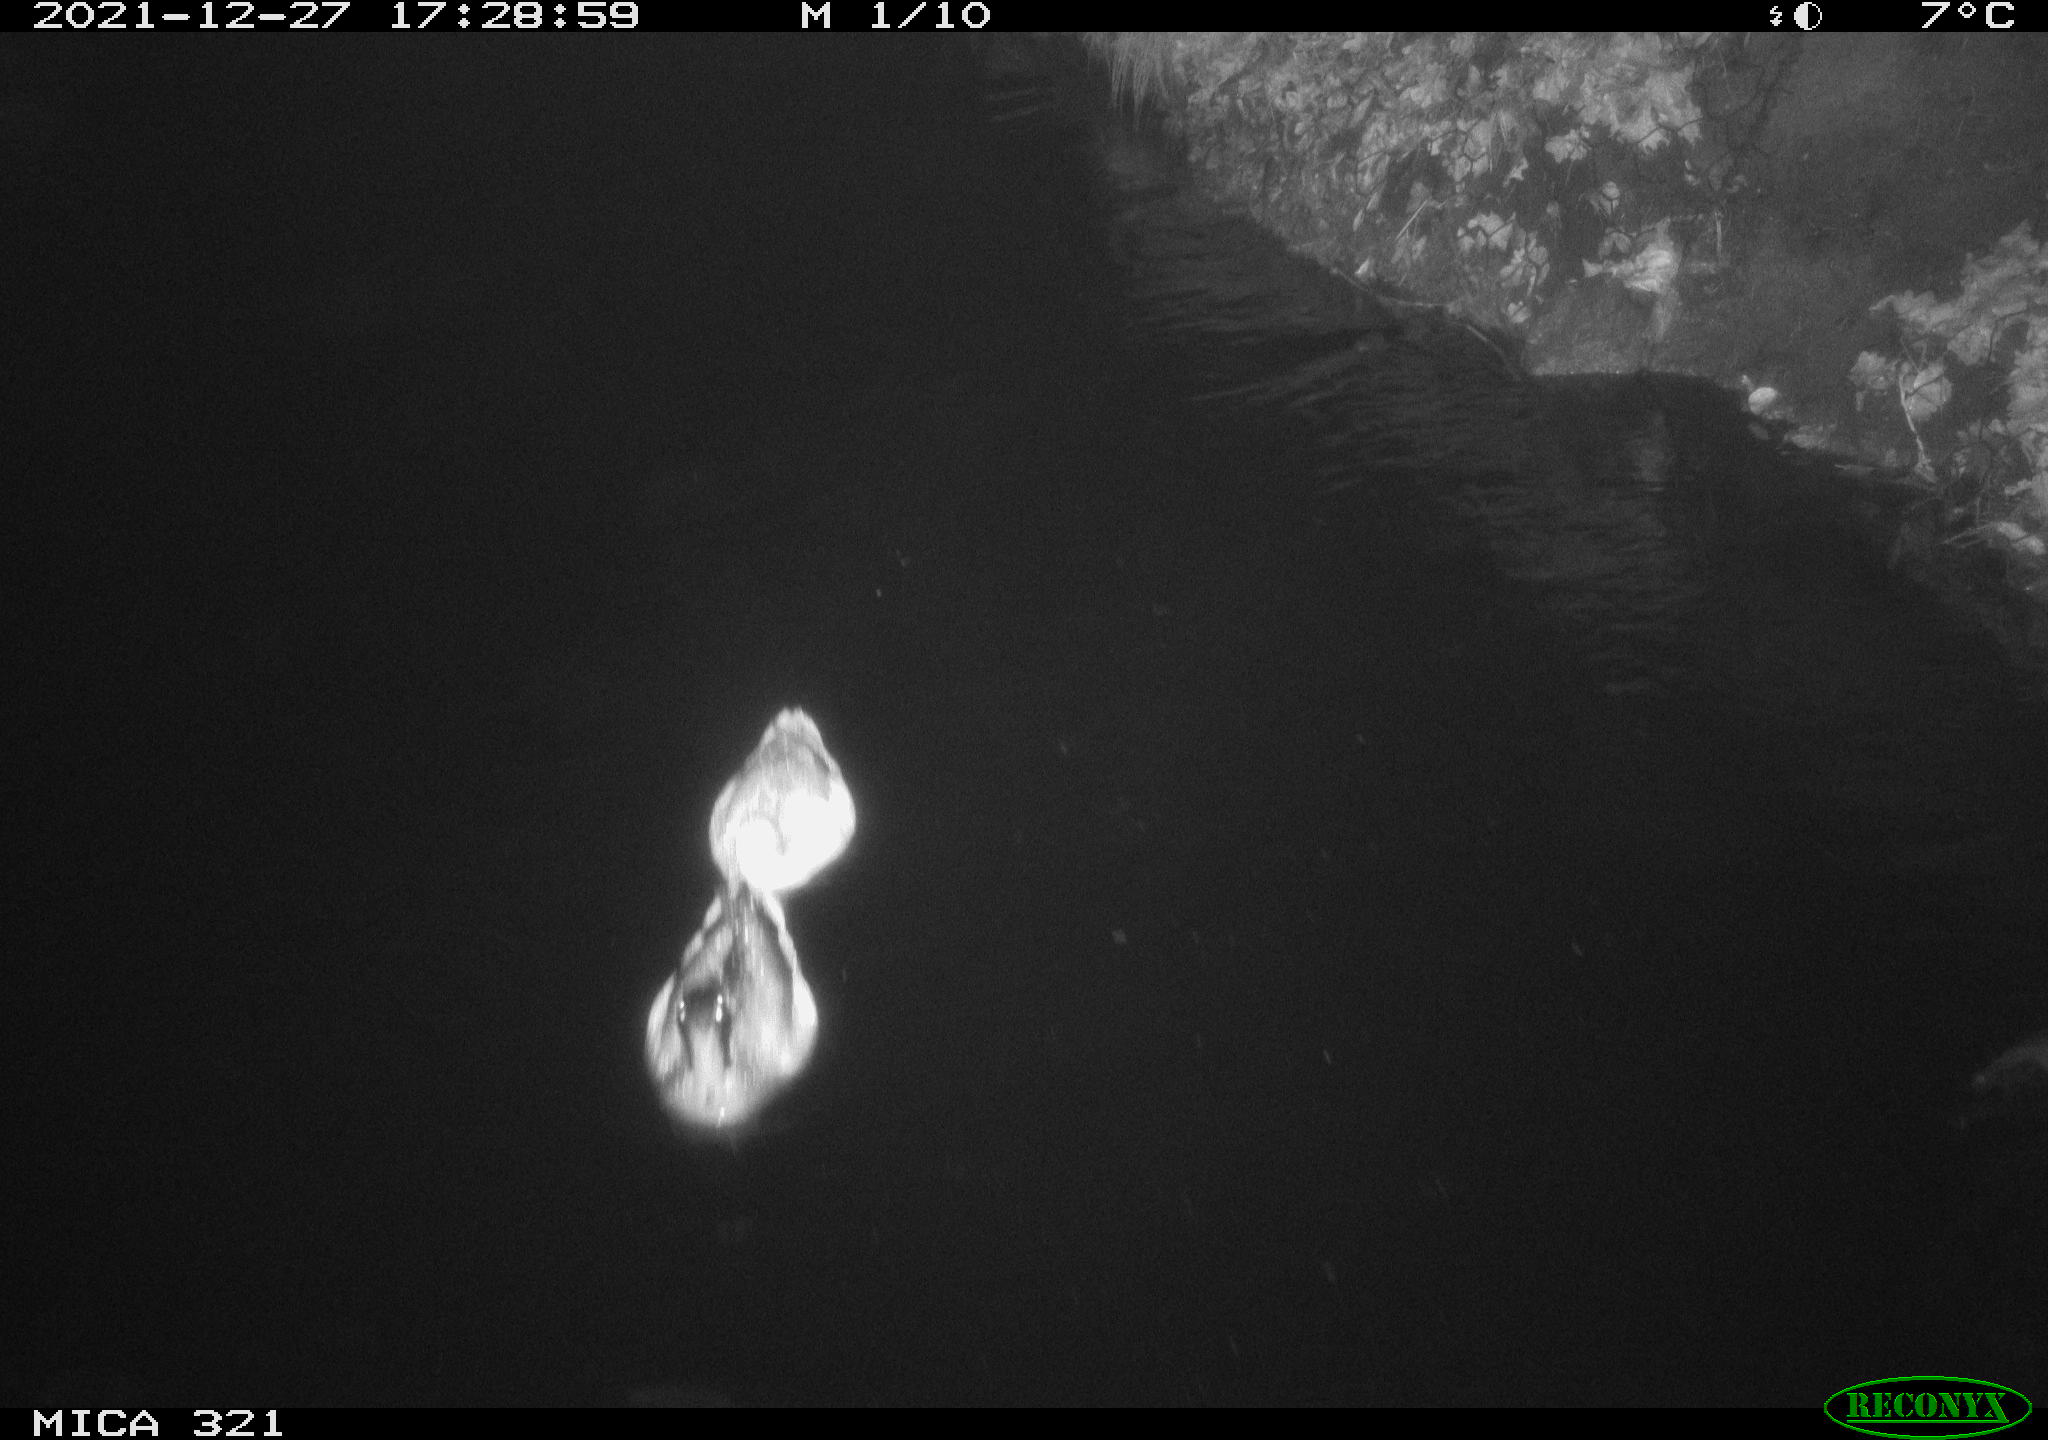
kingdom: Animalia
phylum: Chordata
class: Aves
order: Anseriformes
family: Anatidae
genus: Anas
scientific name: Anas
